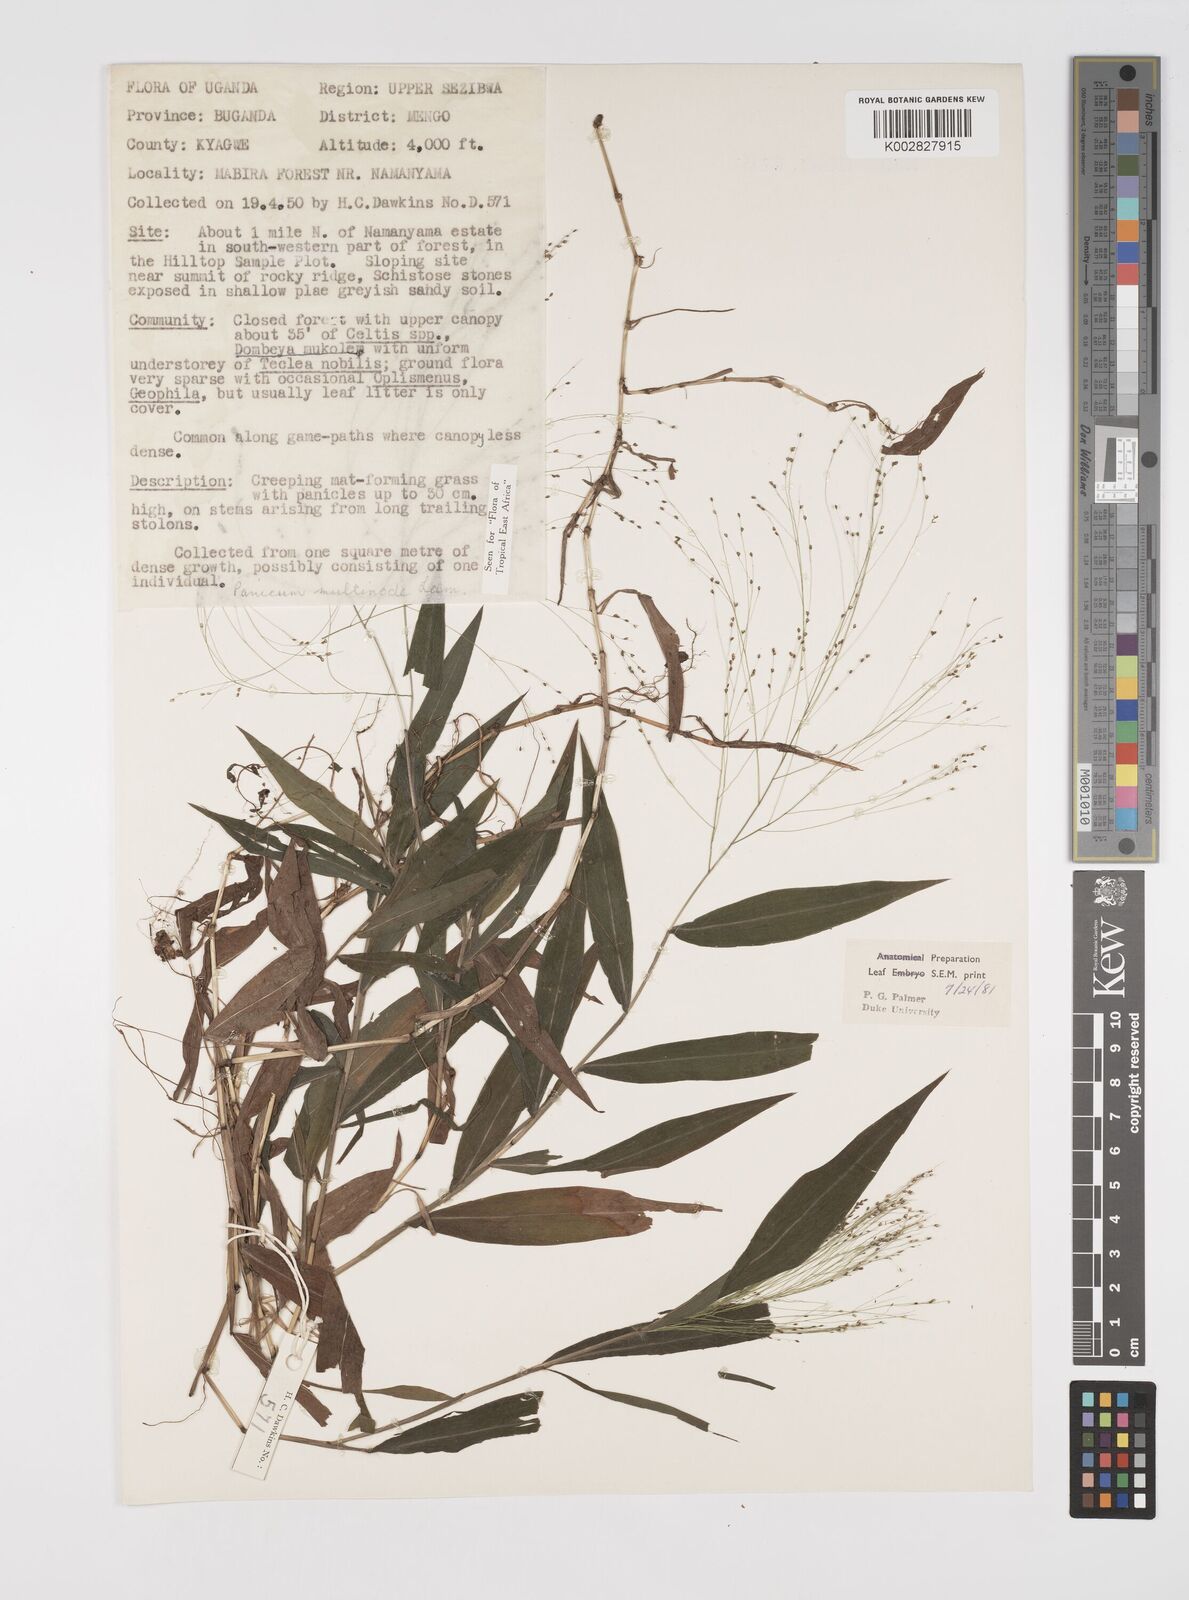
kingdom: Plantae
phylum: Tracheophyta
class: Liliopsida
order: Poales
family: Poaceae
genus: Cyrtococcum
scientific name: Cyrtococcum multinode
